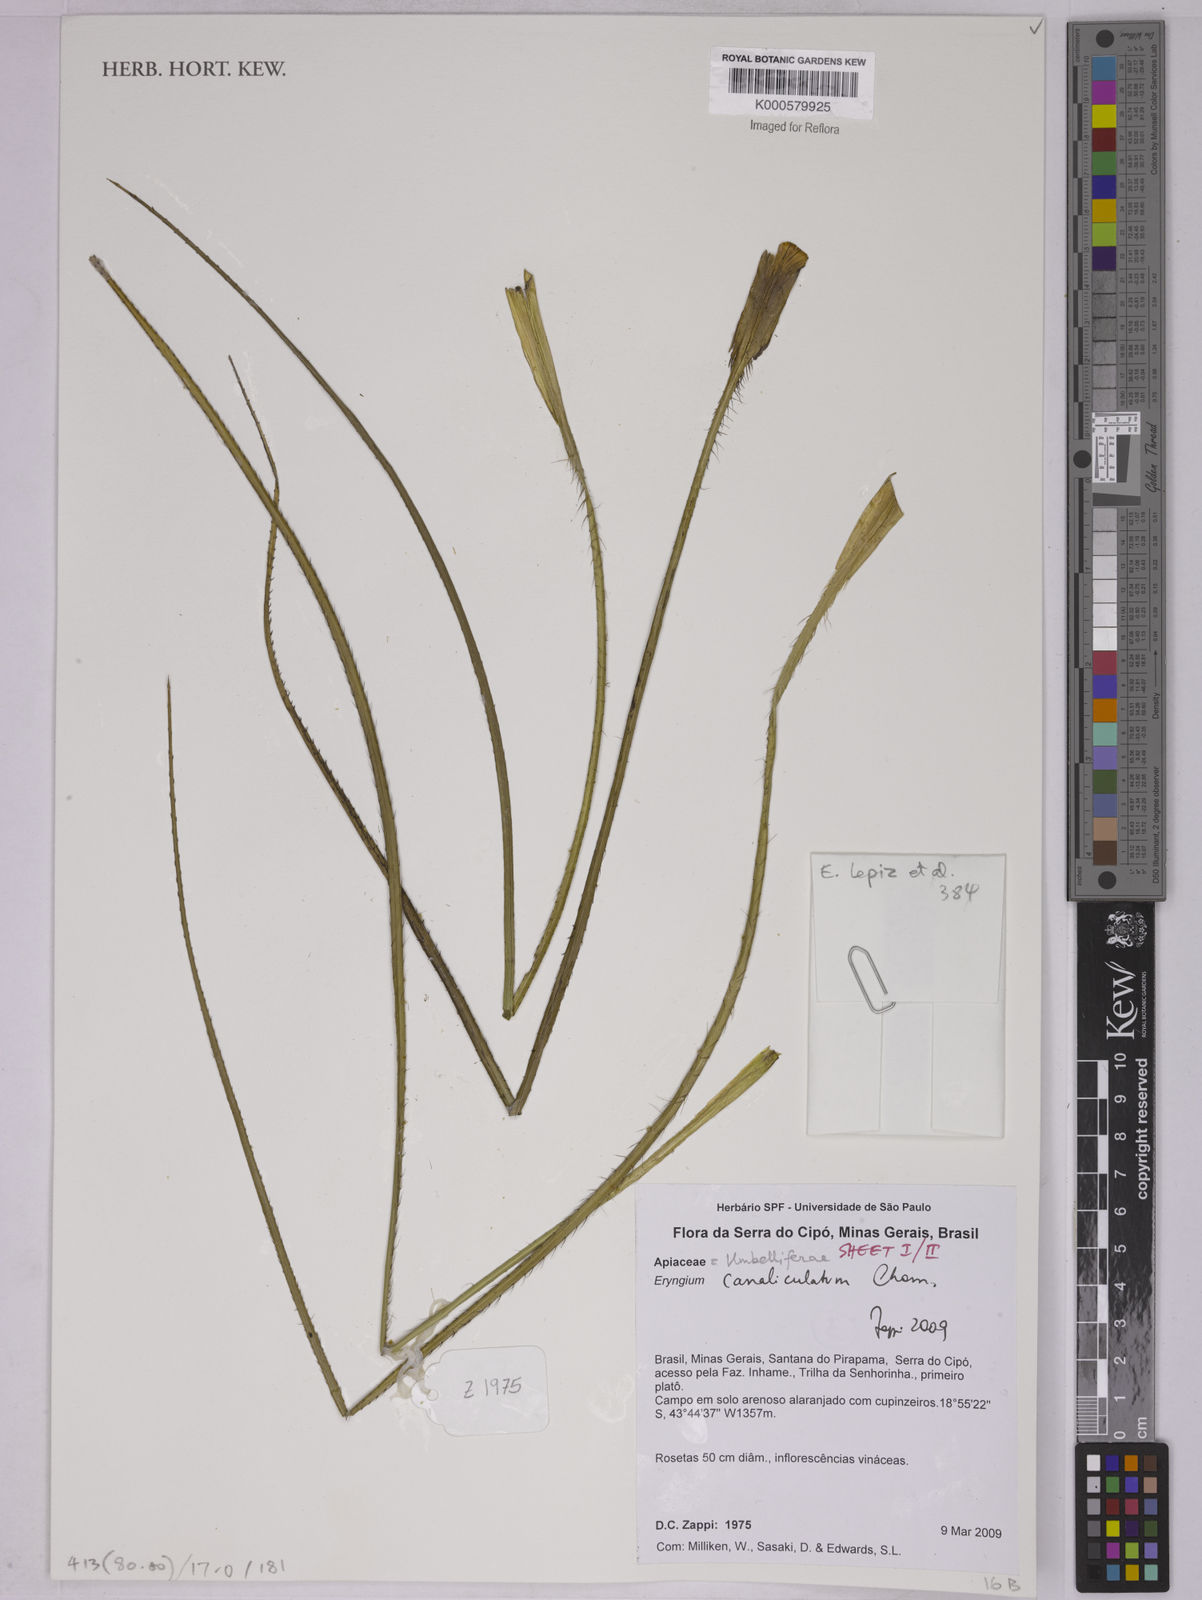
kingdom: Plantae
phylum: Tracheophyta
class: Magnoliopsida
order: Apiales
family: Apiaceae
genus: Eryngium
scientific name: Eryngium canaliculatum
